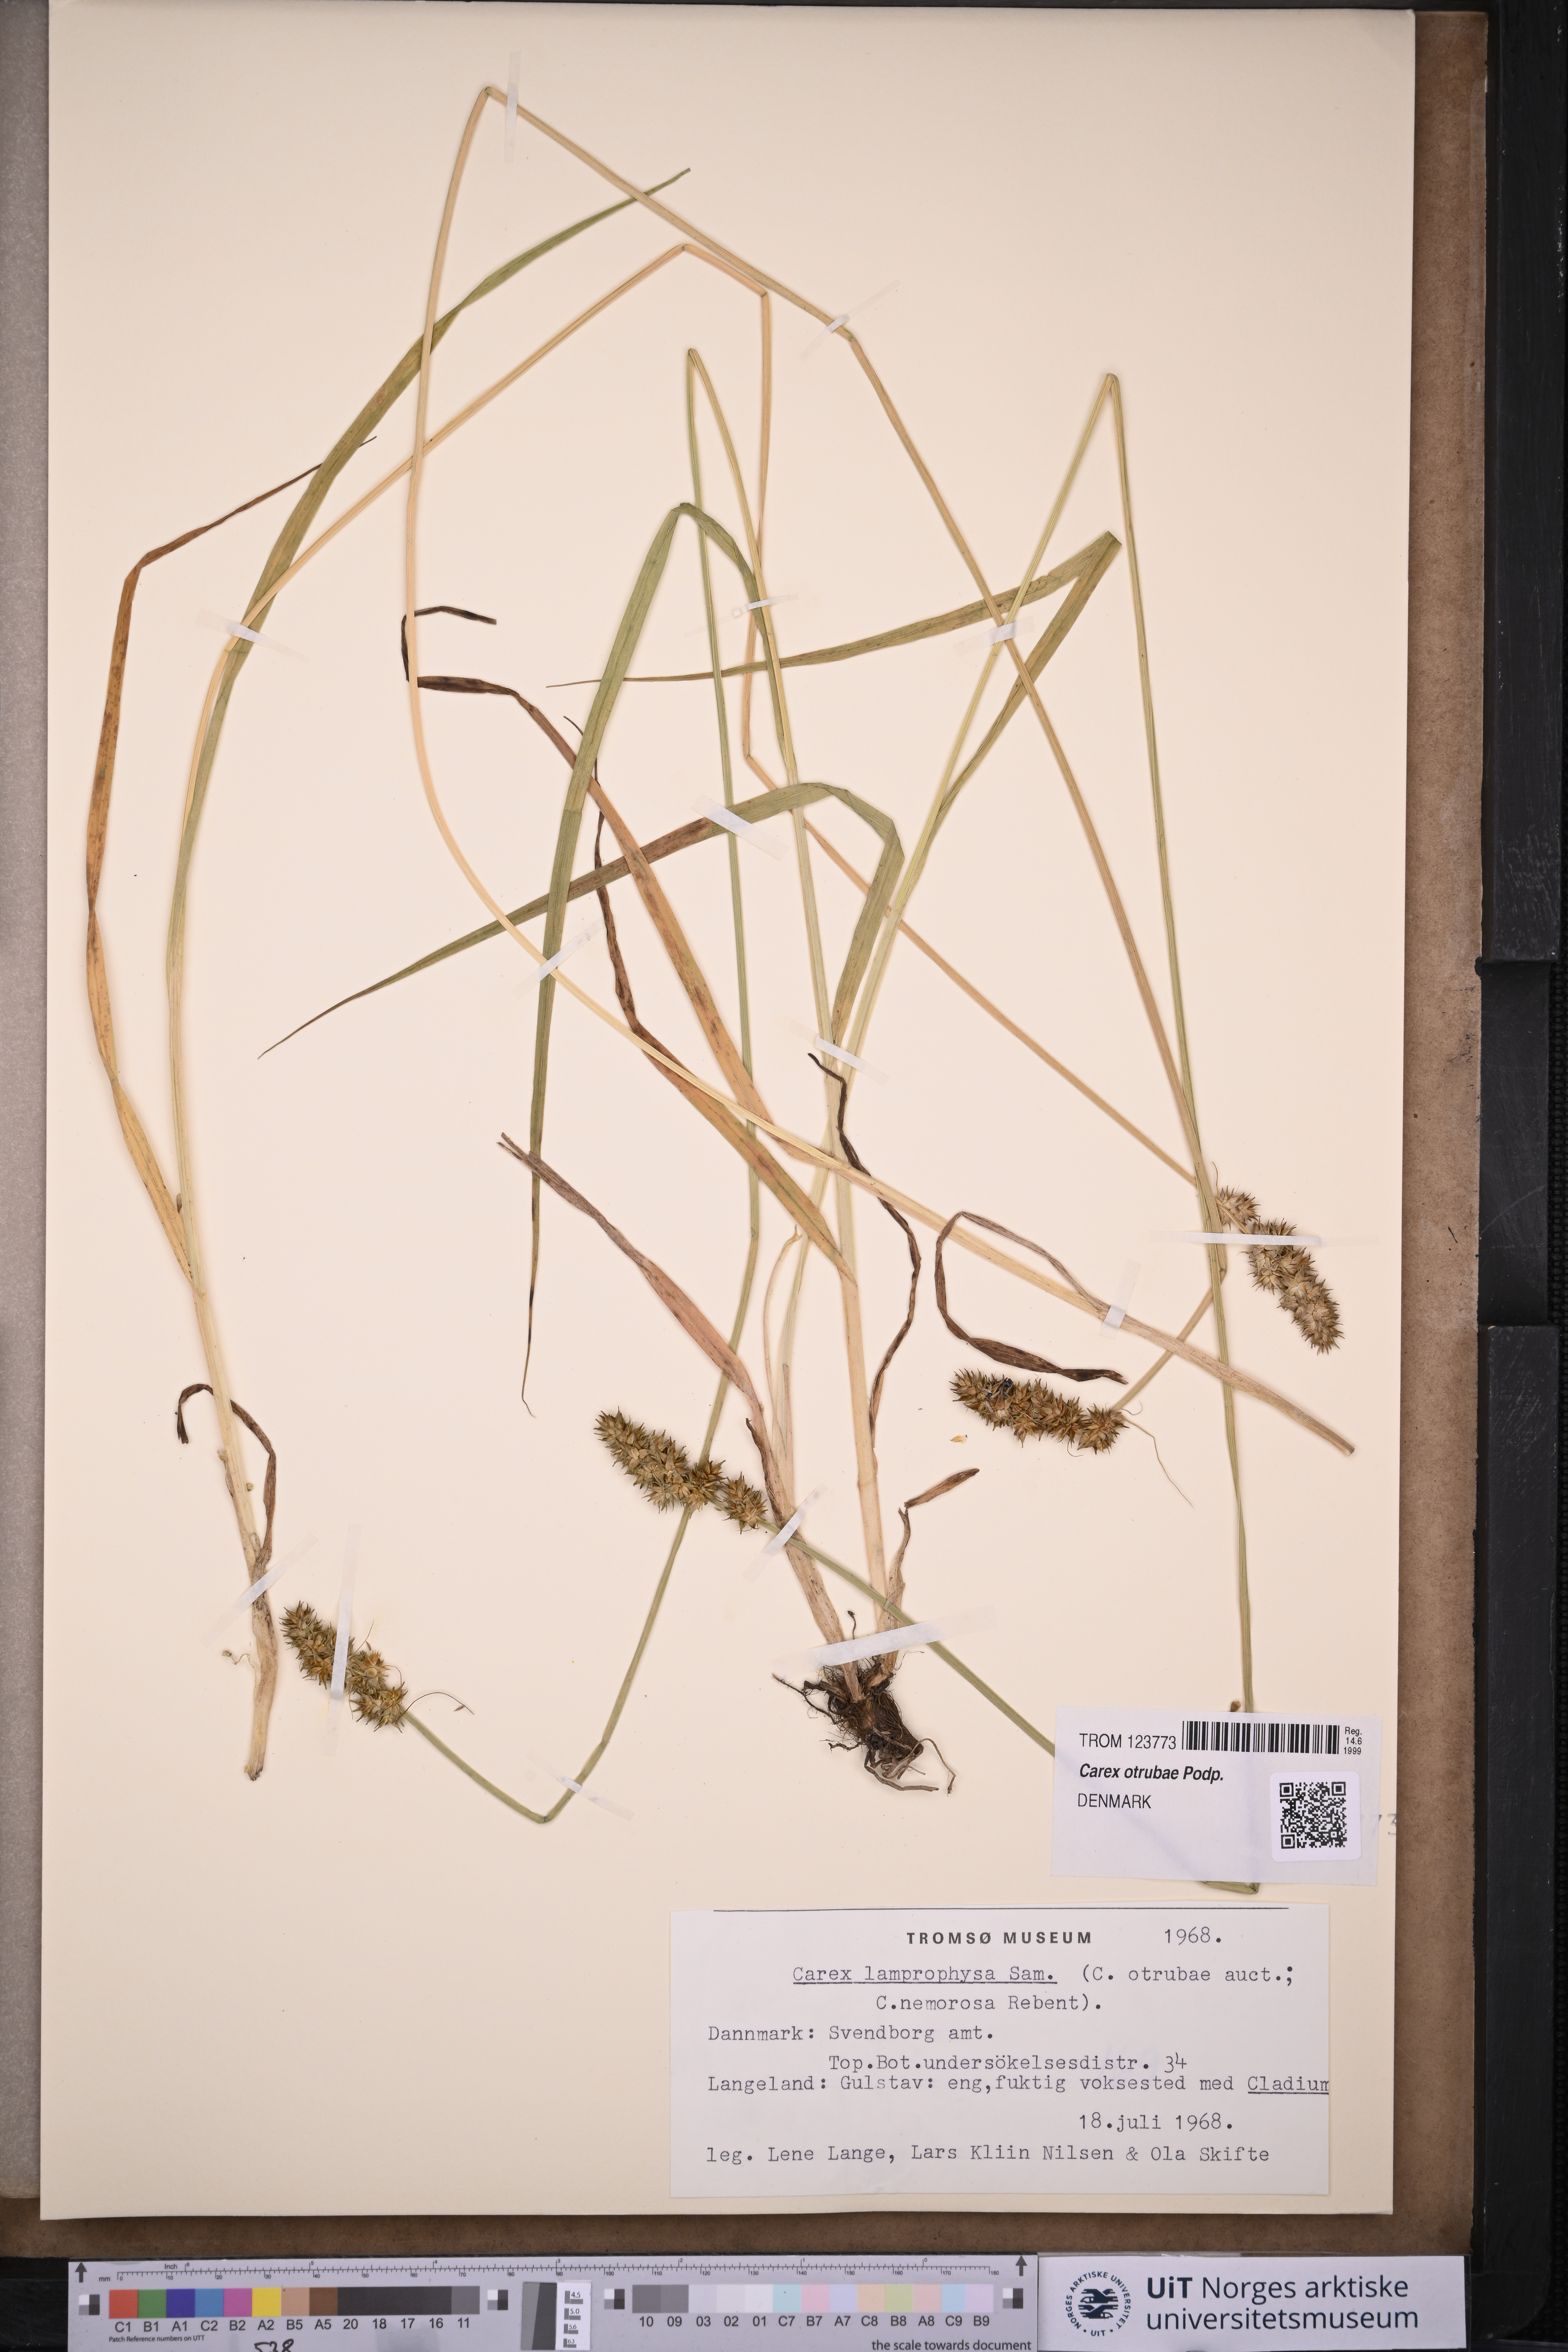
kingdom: Plantae
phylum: Tracheophyta
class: Liliopsida
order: Poales
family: Cyperaceae
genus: Carex
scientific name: Carex otrubae
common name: False fox-sedge
